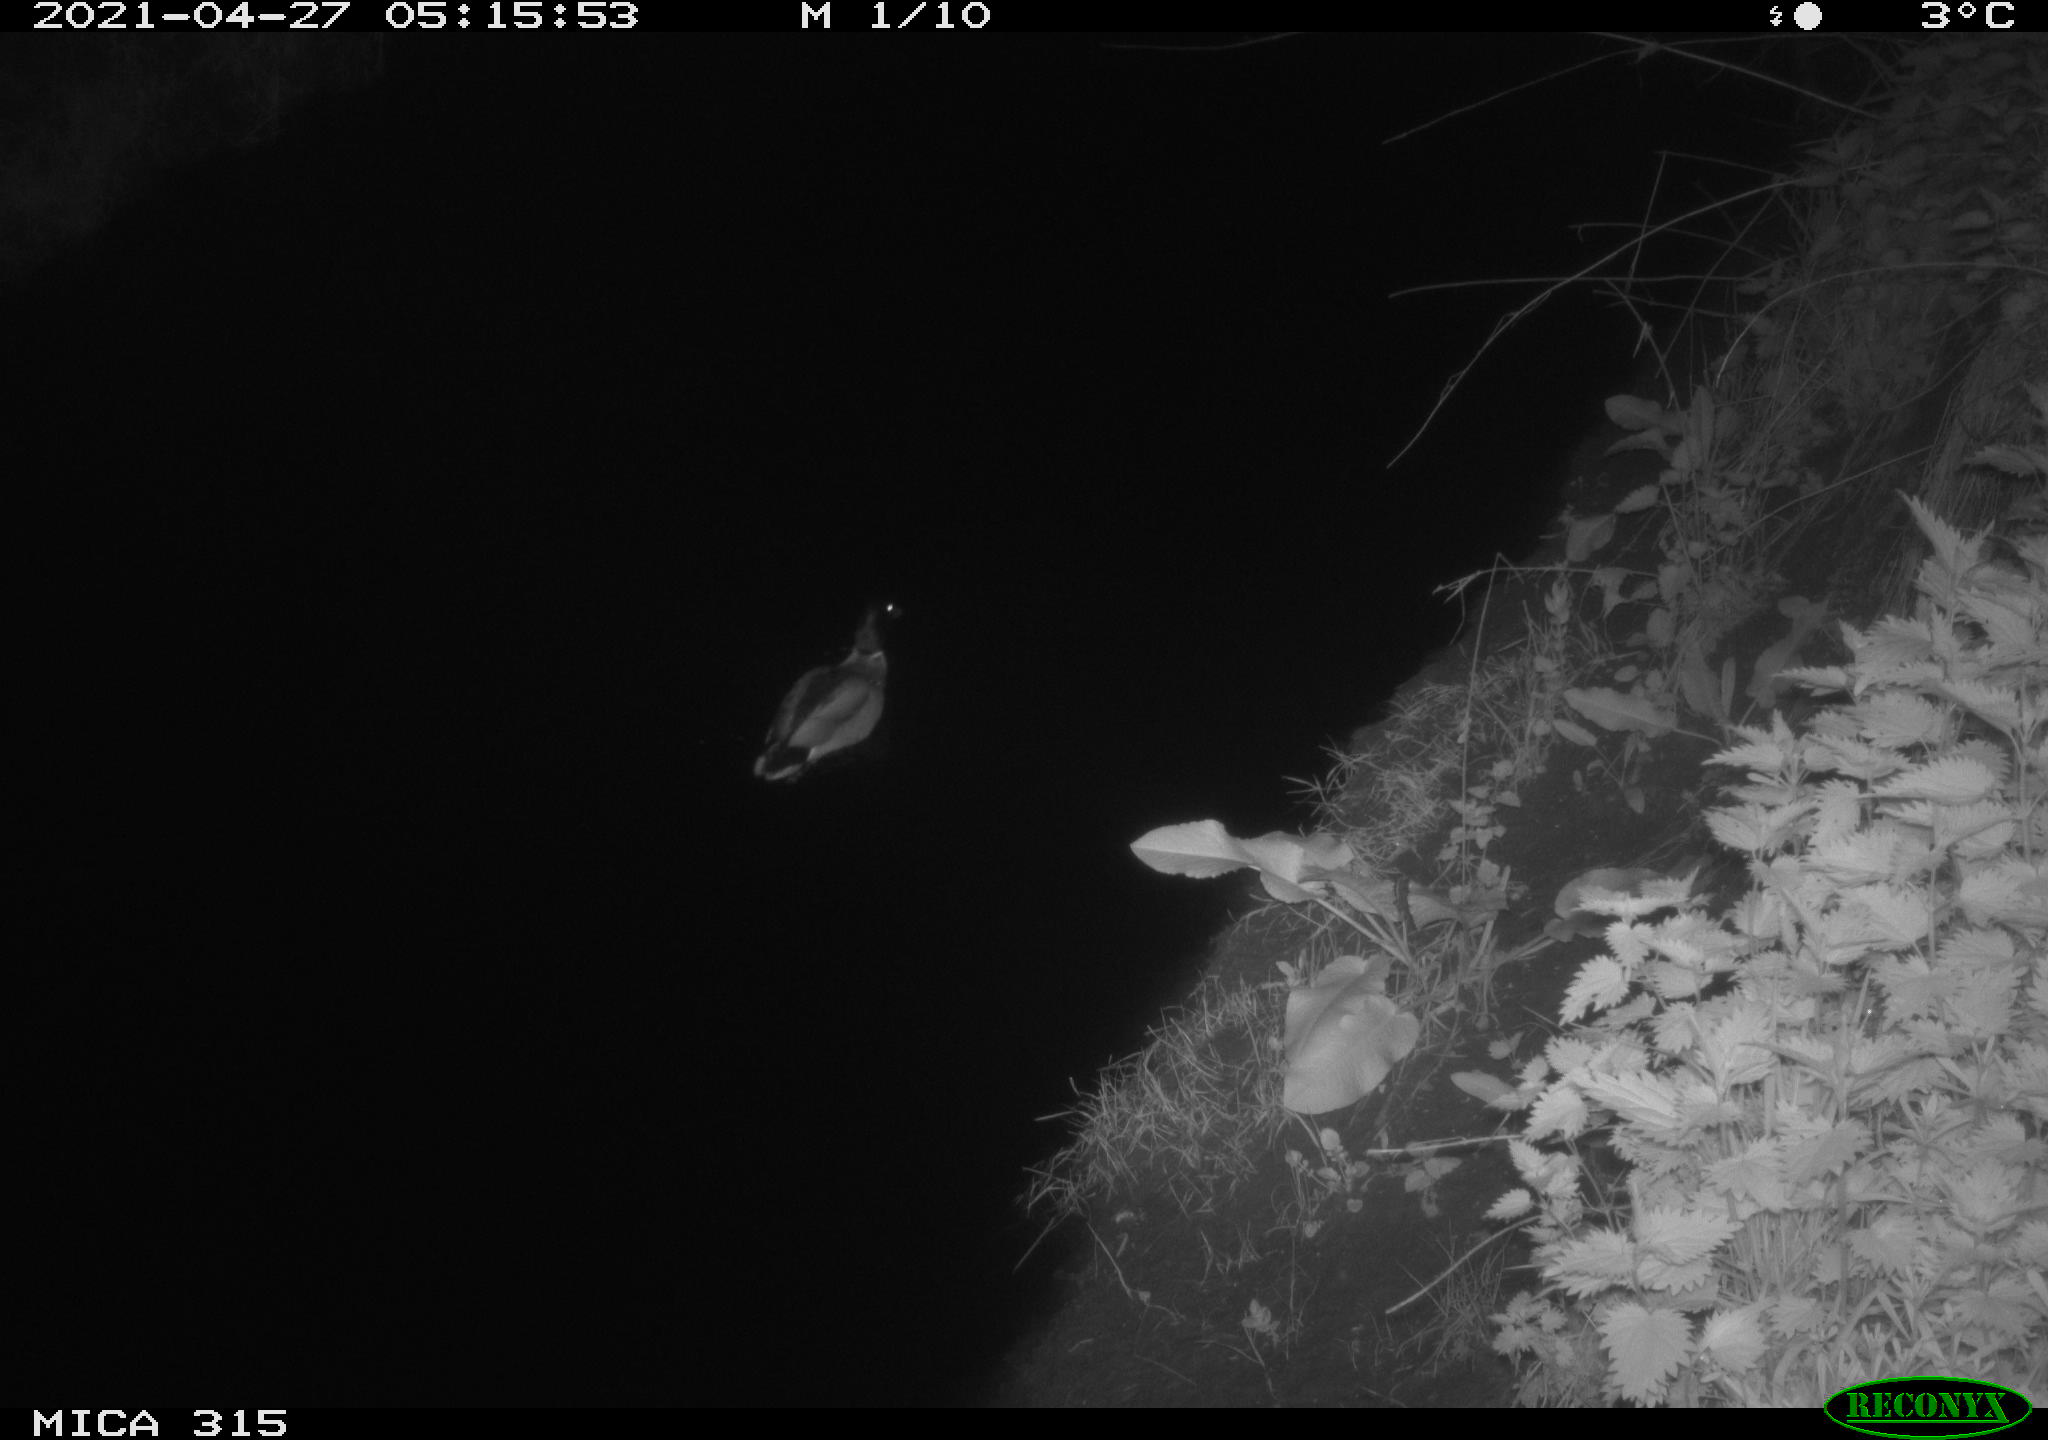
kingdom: Animalia
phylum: Chordata
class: Aves
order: Anseriformes
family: Anatidae
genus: Anas
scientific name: Anas
